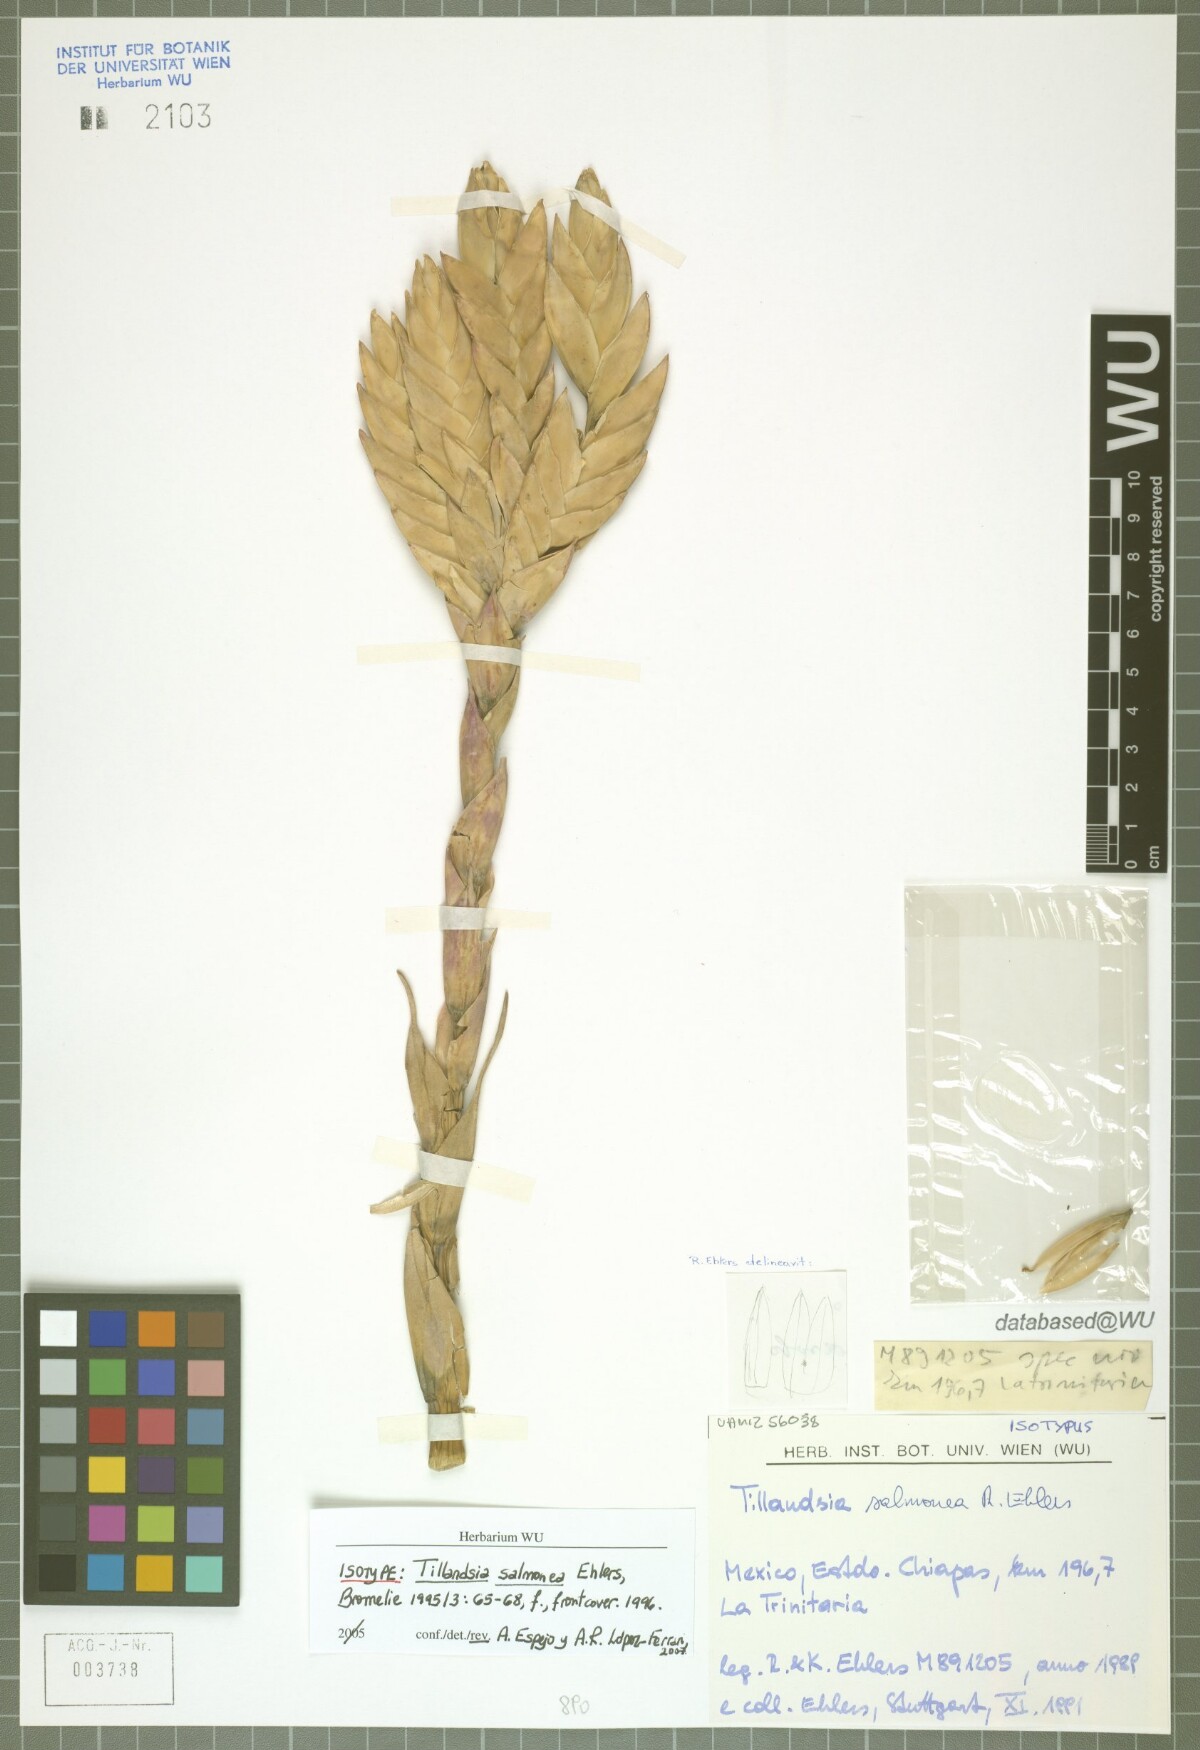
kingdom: Plantae
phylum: Tracheophyta
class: Liliopsida
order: Poales
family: Bromeliaceae
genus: Tillandsia
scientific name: Tillandsia salmonea
